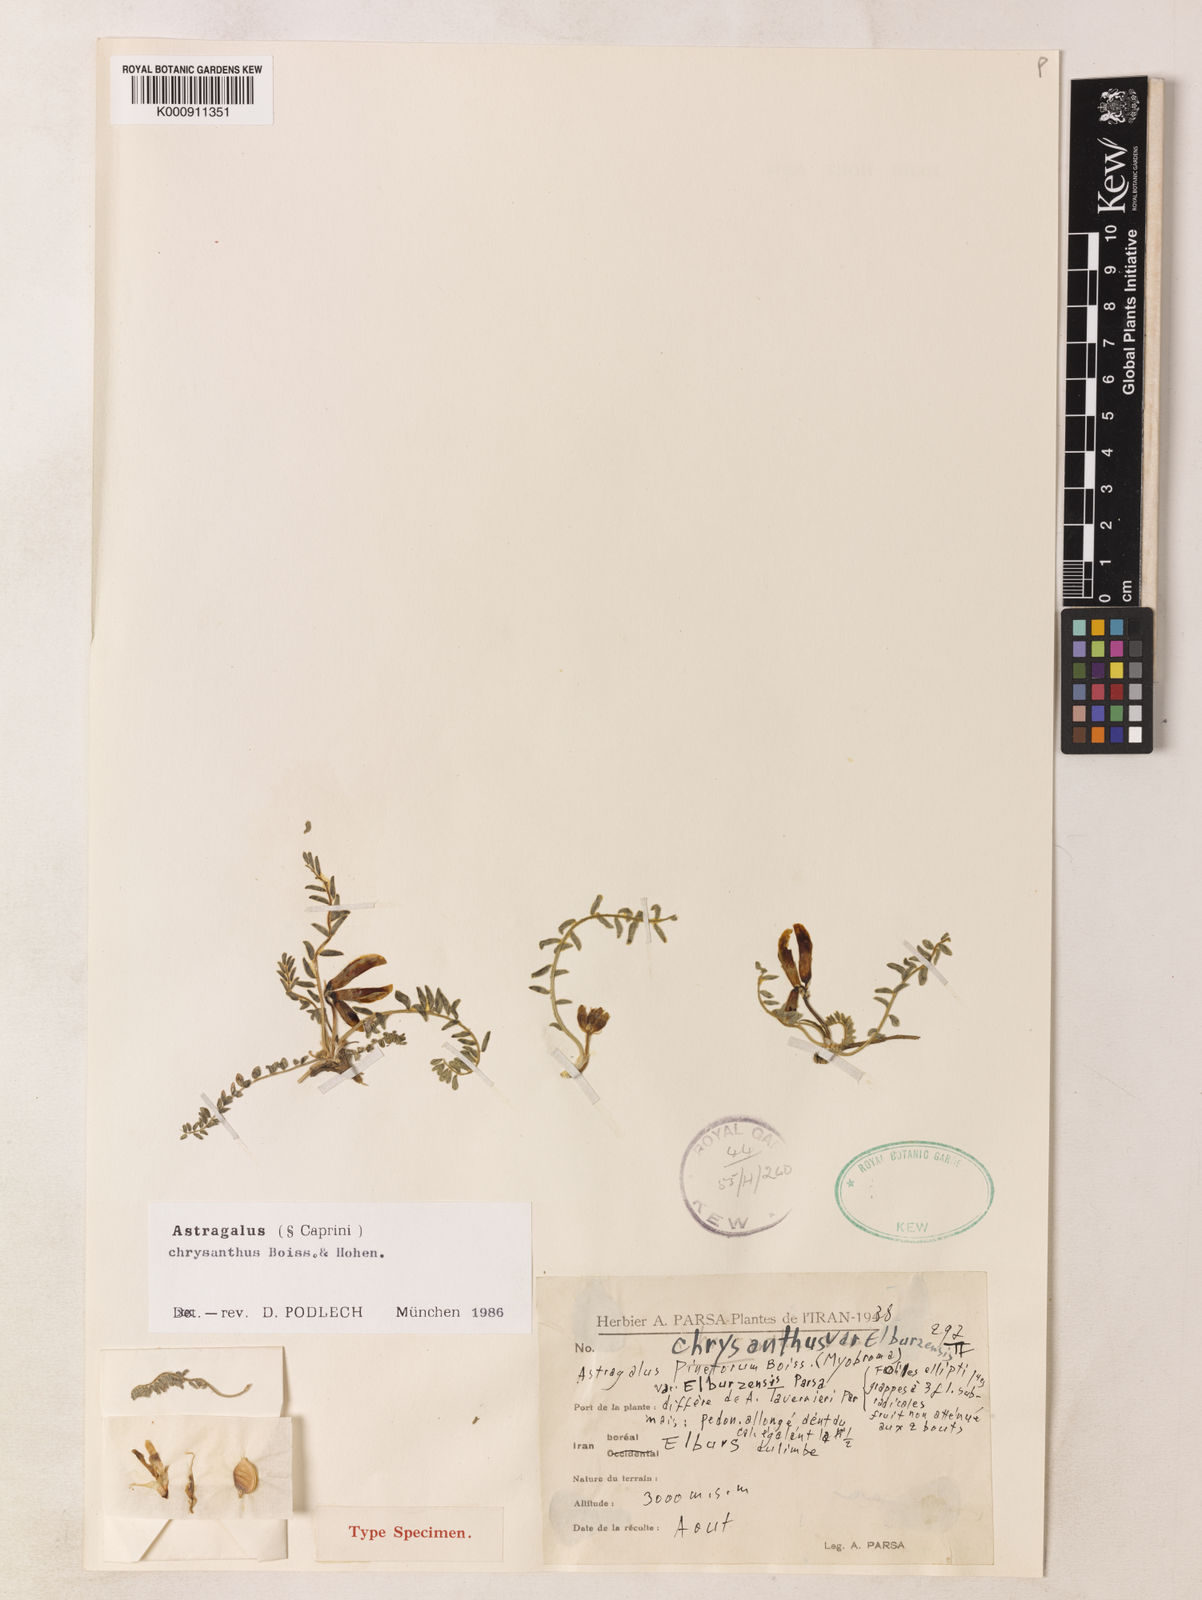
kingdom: Plantae
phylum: Tracheophyta
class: Magnoliopsida
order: Fabales
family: Fabaceae
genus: Astragalus
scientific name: Astragalus chrysanthus
